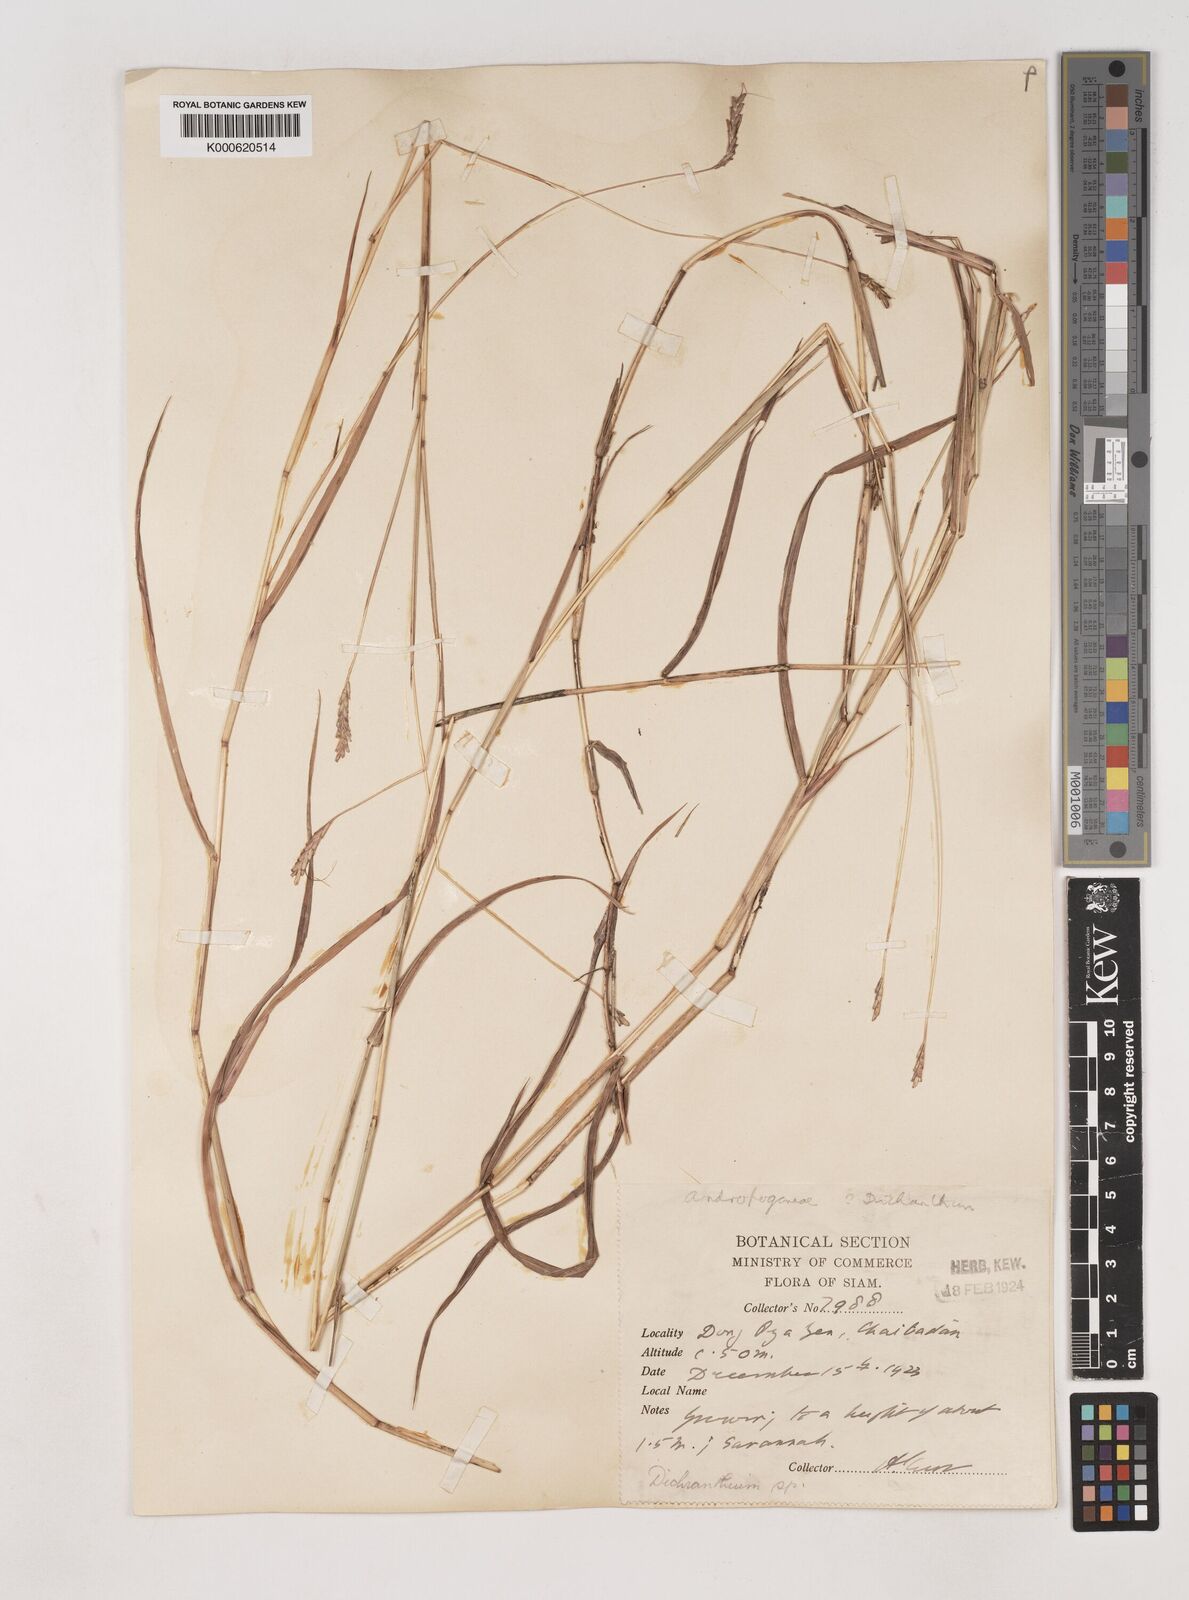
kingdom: Plantae
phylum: Tracheophyta
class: Liliopsida
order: Poales
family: Poaceae
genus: Dichanthium
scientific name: Dichanthium caricosum
